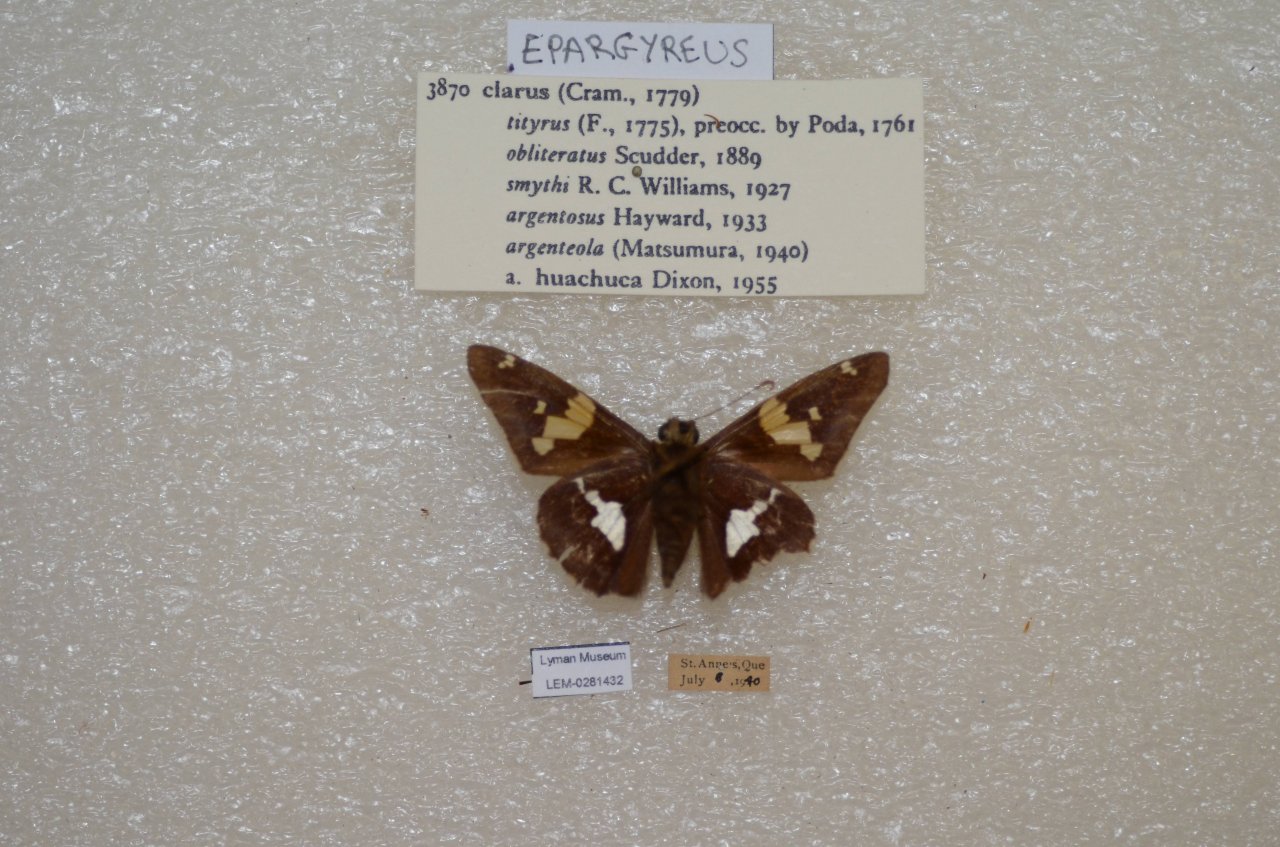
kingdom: Animalia
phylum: Arthropoda
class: Insecta
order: Lepidoptera
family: Hesperiidae
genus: Epargyreus
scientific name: Epargyreus clarus
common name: Silver-spotted Skipper
